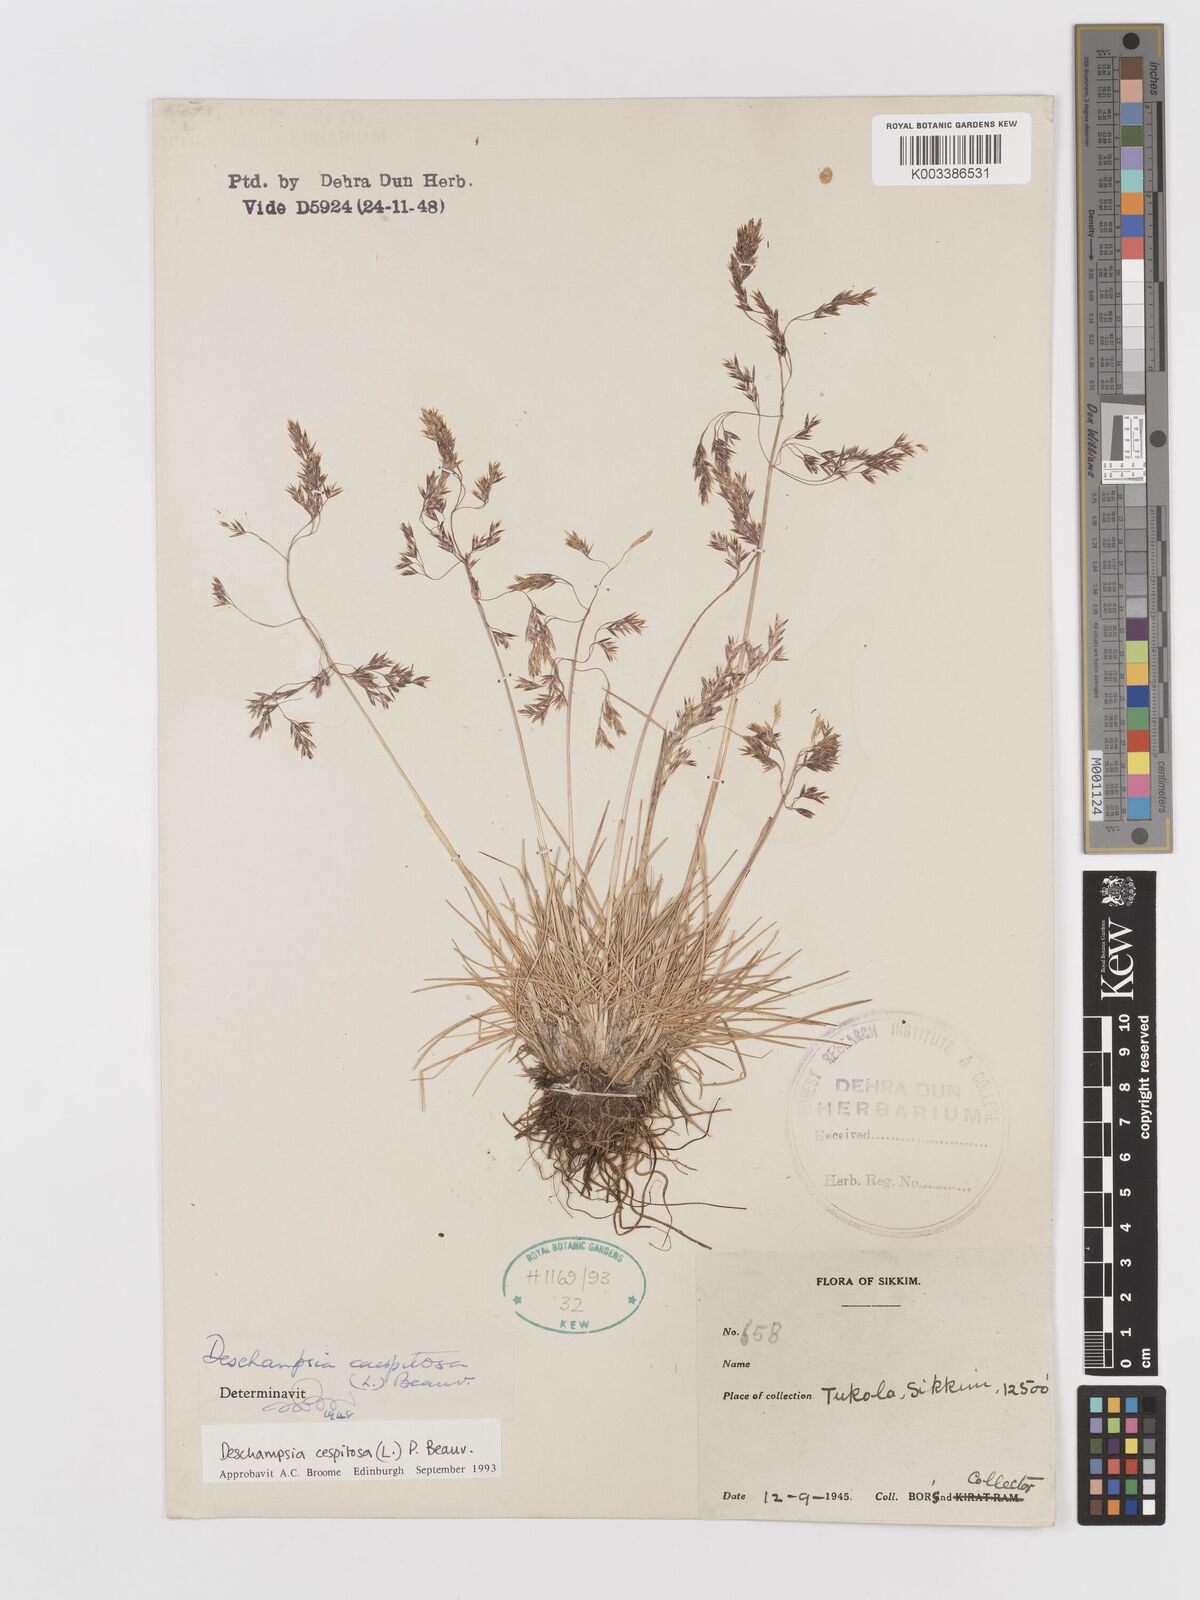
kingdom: Plantae
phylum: Tracheophyta
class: Liliopsida
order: Poales
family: Poaceae
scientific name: Poaceae
